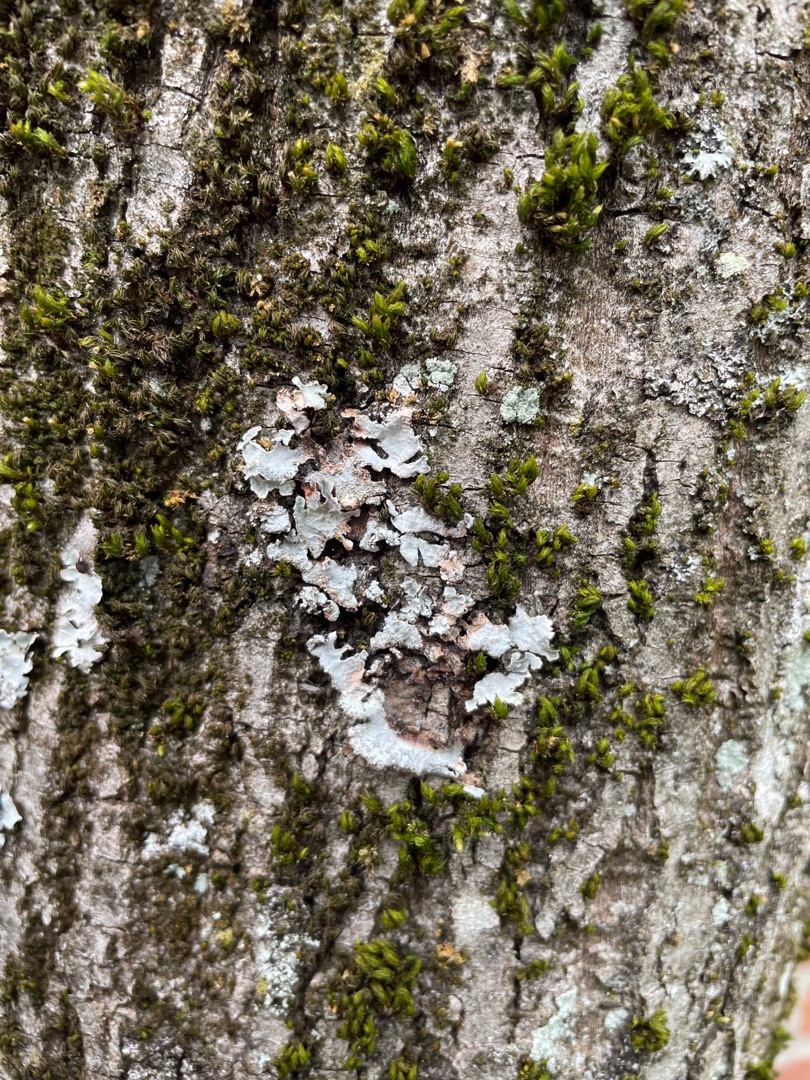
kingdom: Fungi
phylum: Ascomycota
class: Lecanoromycetes
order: Lecanorales
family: Parmeliaceae
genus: Parmelia
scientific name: Parmelia sulcata
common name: Rynket skållav
